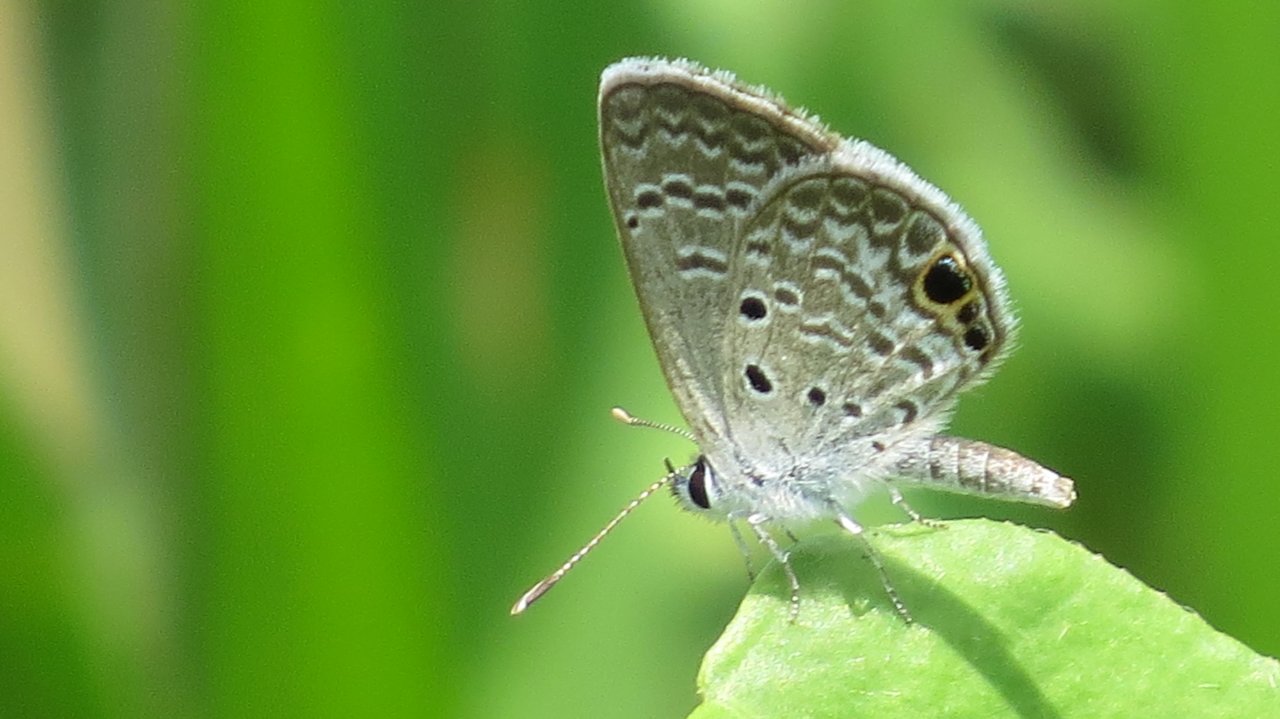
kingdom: Animalia
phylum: Arthropoda
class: Insecta
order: Lepidoptera
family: Lycaenidae
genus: Hemiargus
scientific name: Hemiargus ceraunus
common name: Ceraunus Blue
